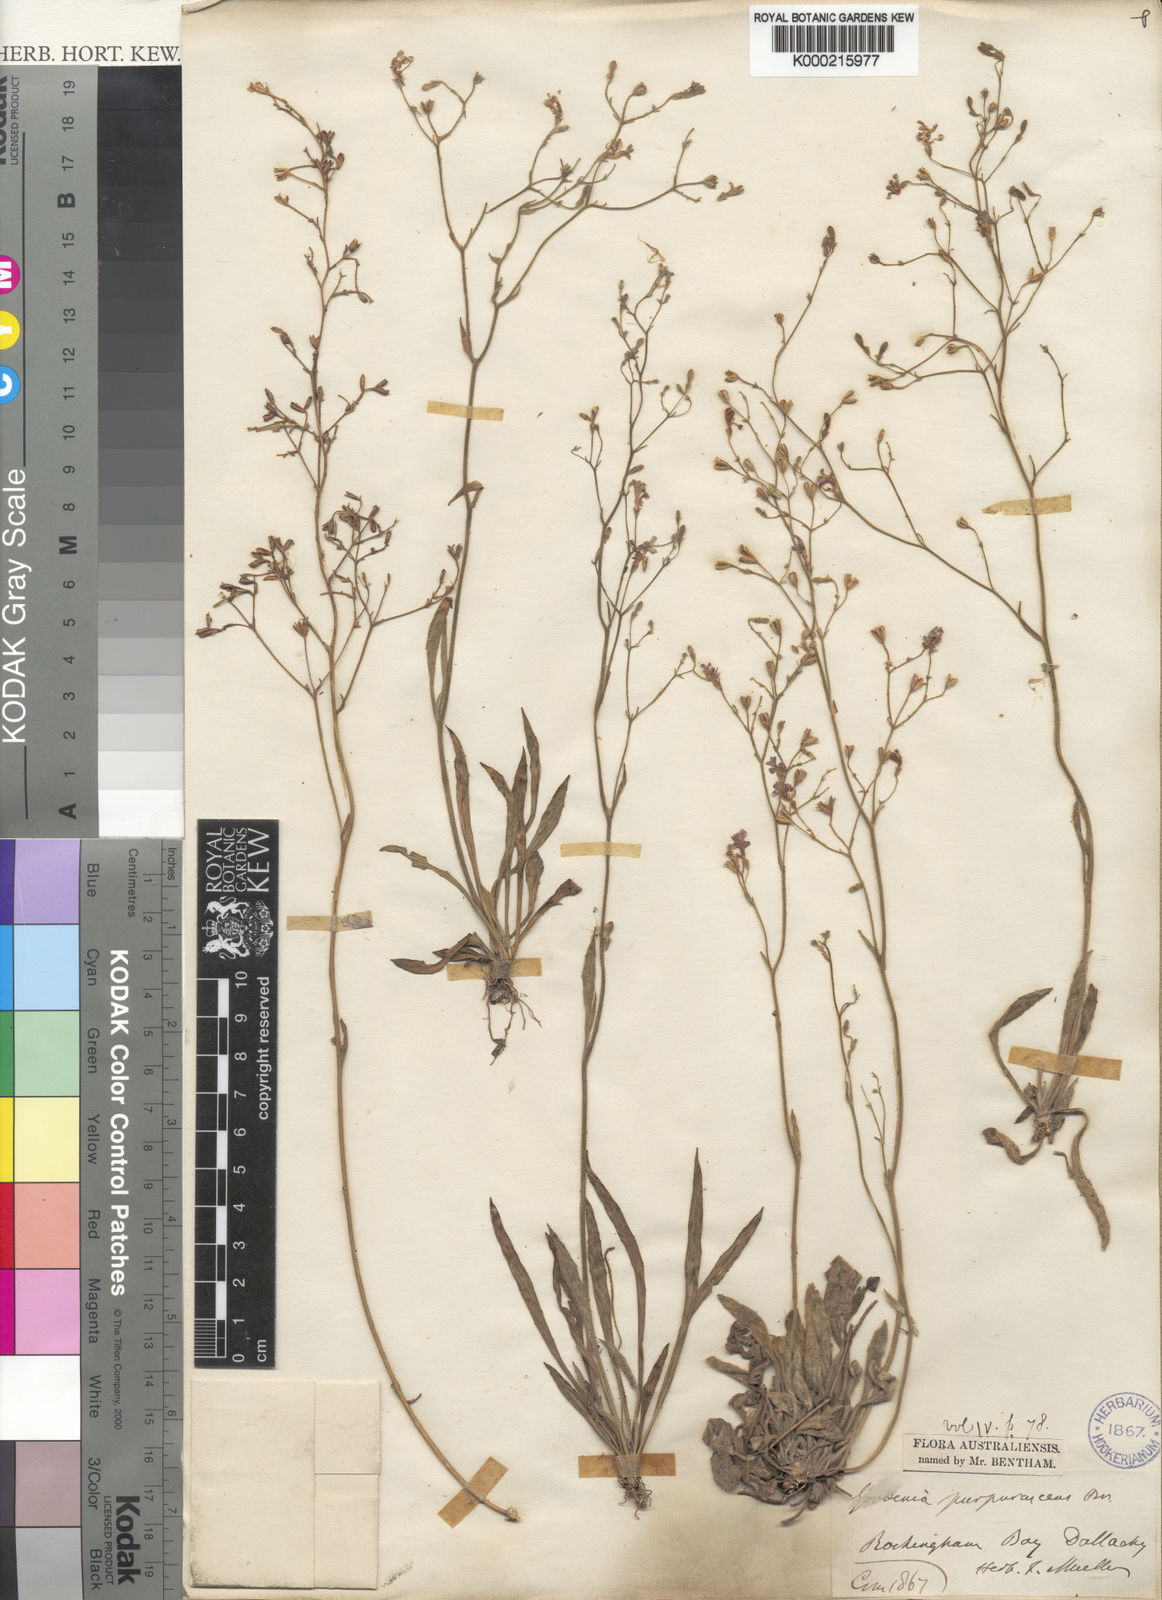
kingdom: Plantae
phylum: Tracheophyta
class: Magnoliopsida
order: Asterales
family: Goodeniaceae
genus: Goodenia
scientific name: Goodenia purpurascens
